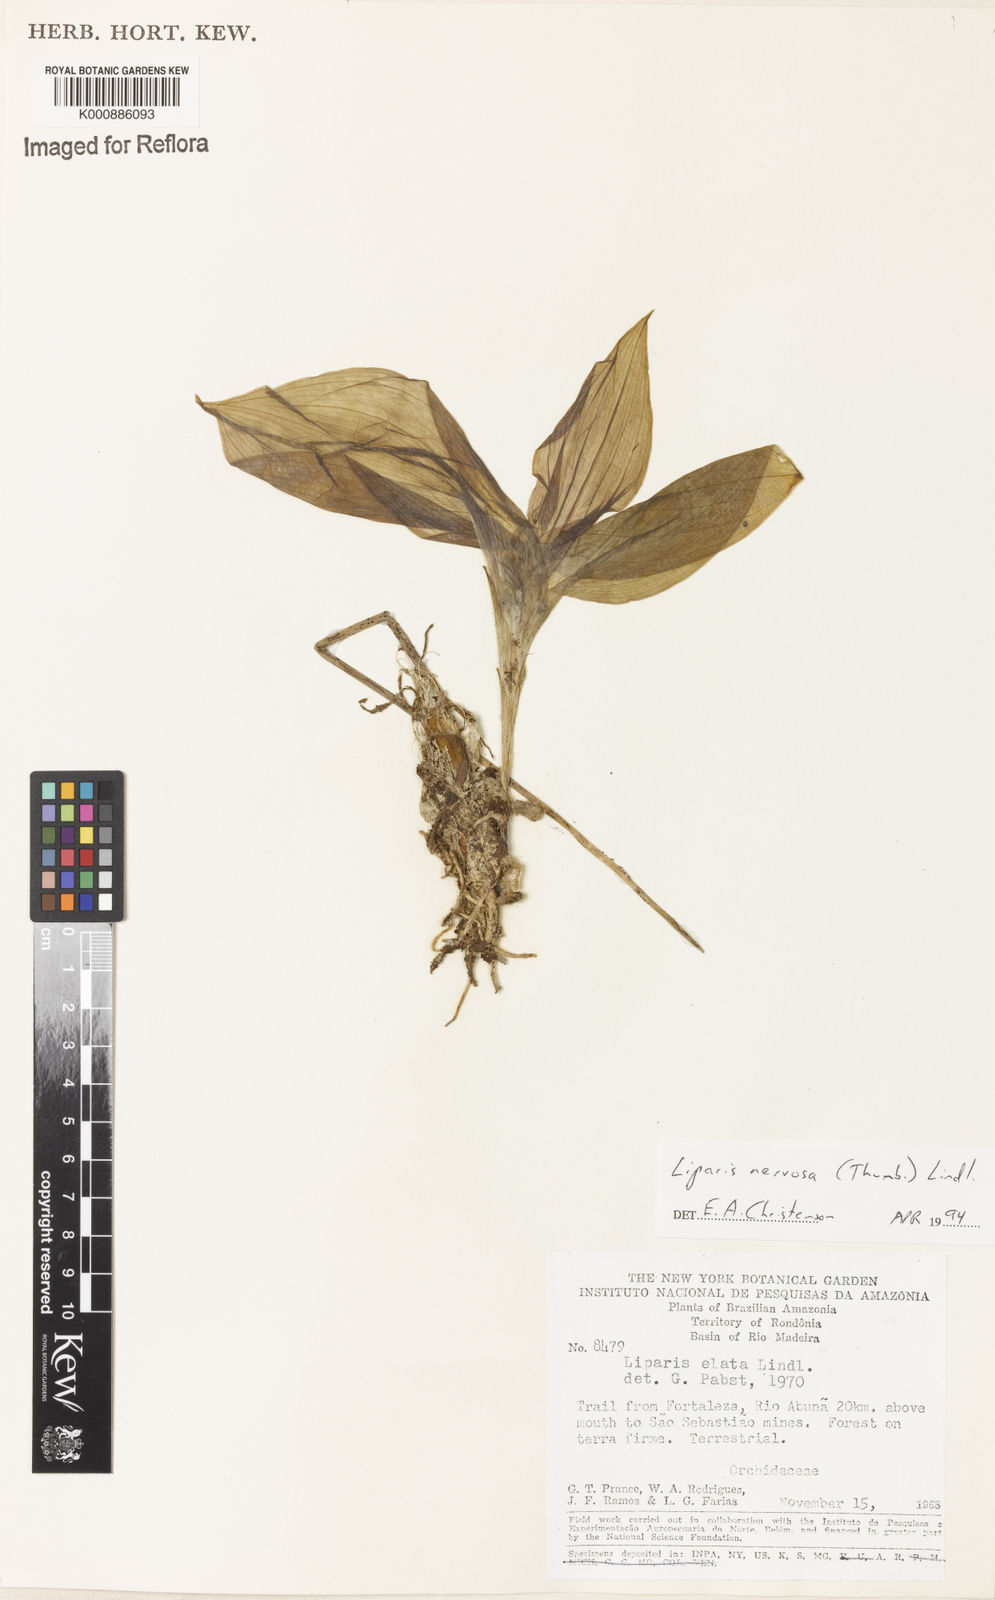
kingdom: Plantae
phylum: Tracheophyta
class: Liliopsida
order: Asparagales
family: Orchidaceae
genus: Liparis
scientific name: Liparis nervosa
